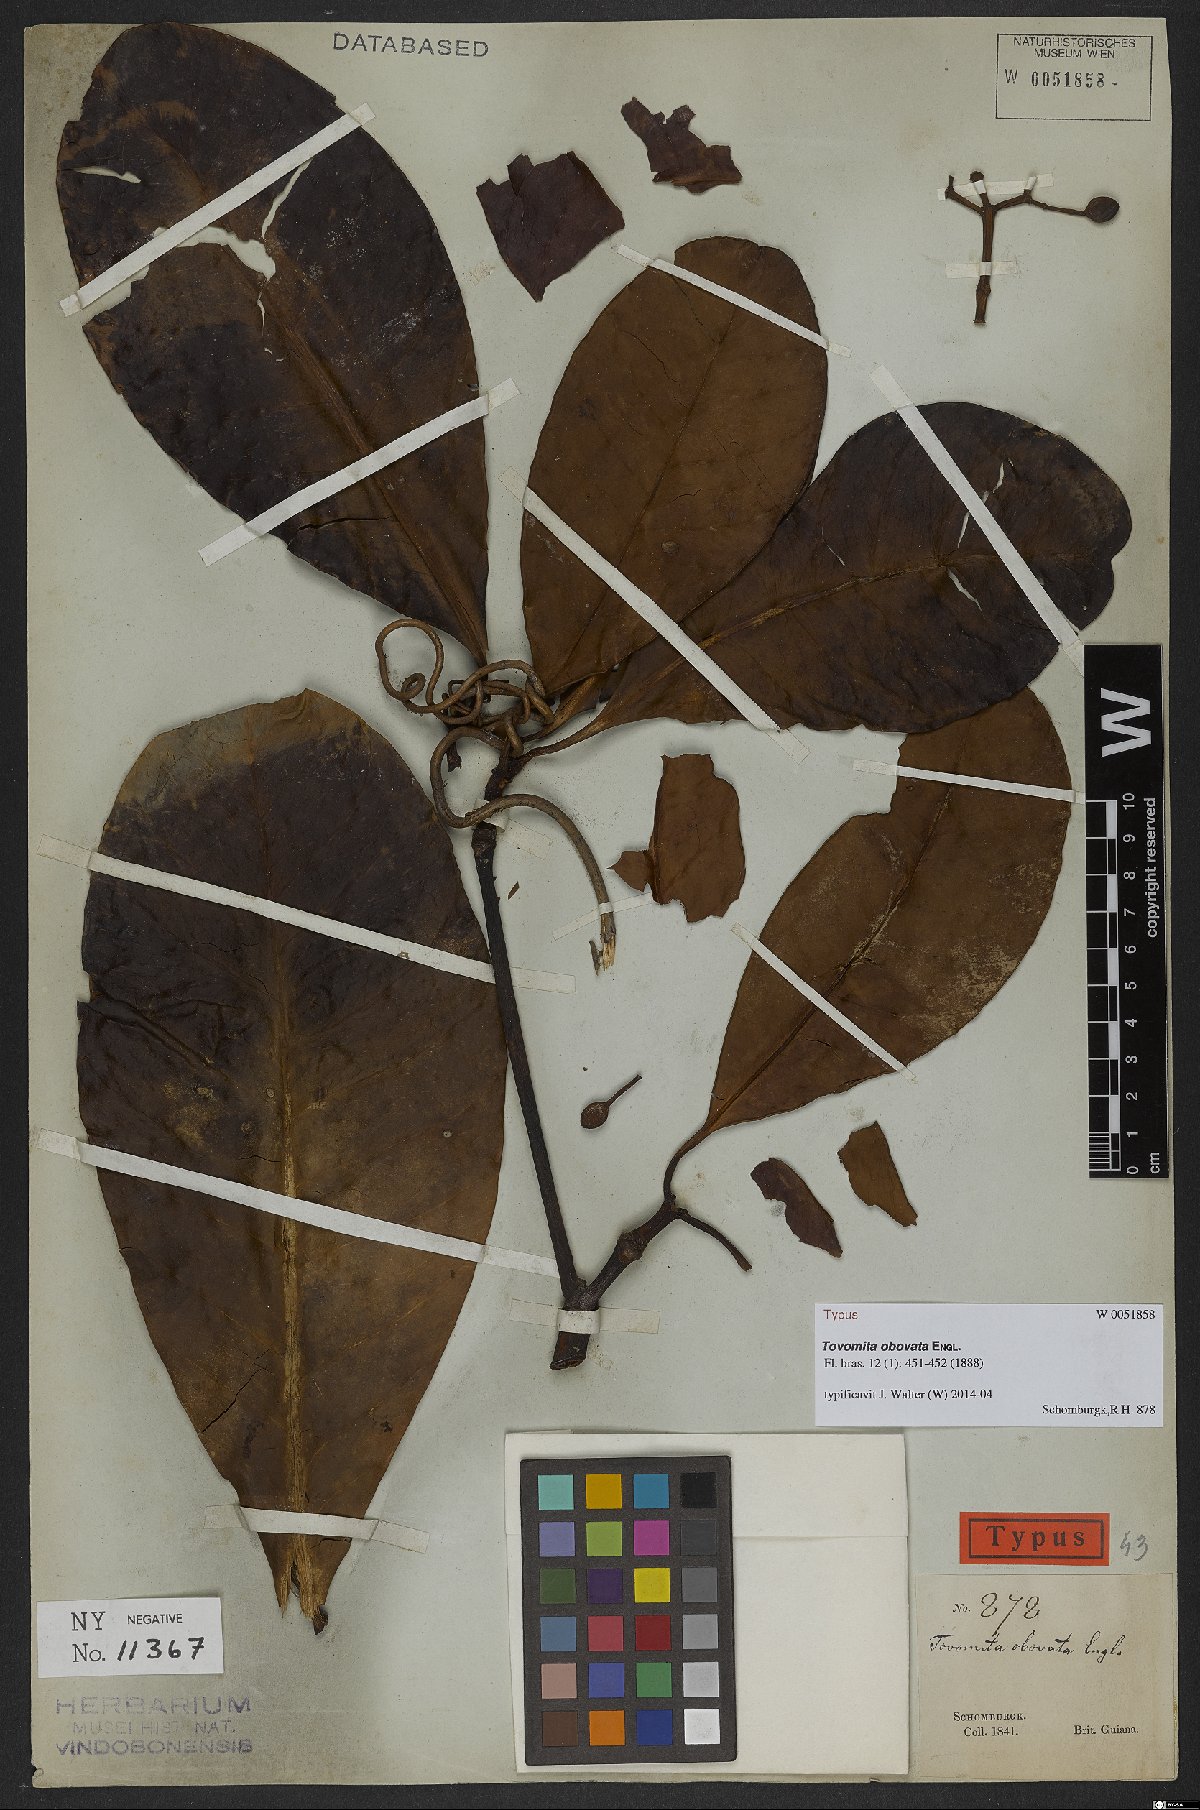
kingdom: Plantae
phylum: Tracheophyta
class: Magnoliopsida
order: Malpighiales
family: Clusiaceae
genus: Tovomita
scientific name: Tovomita obovata
